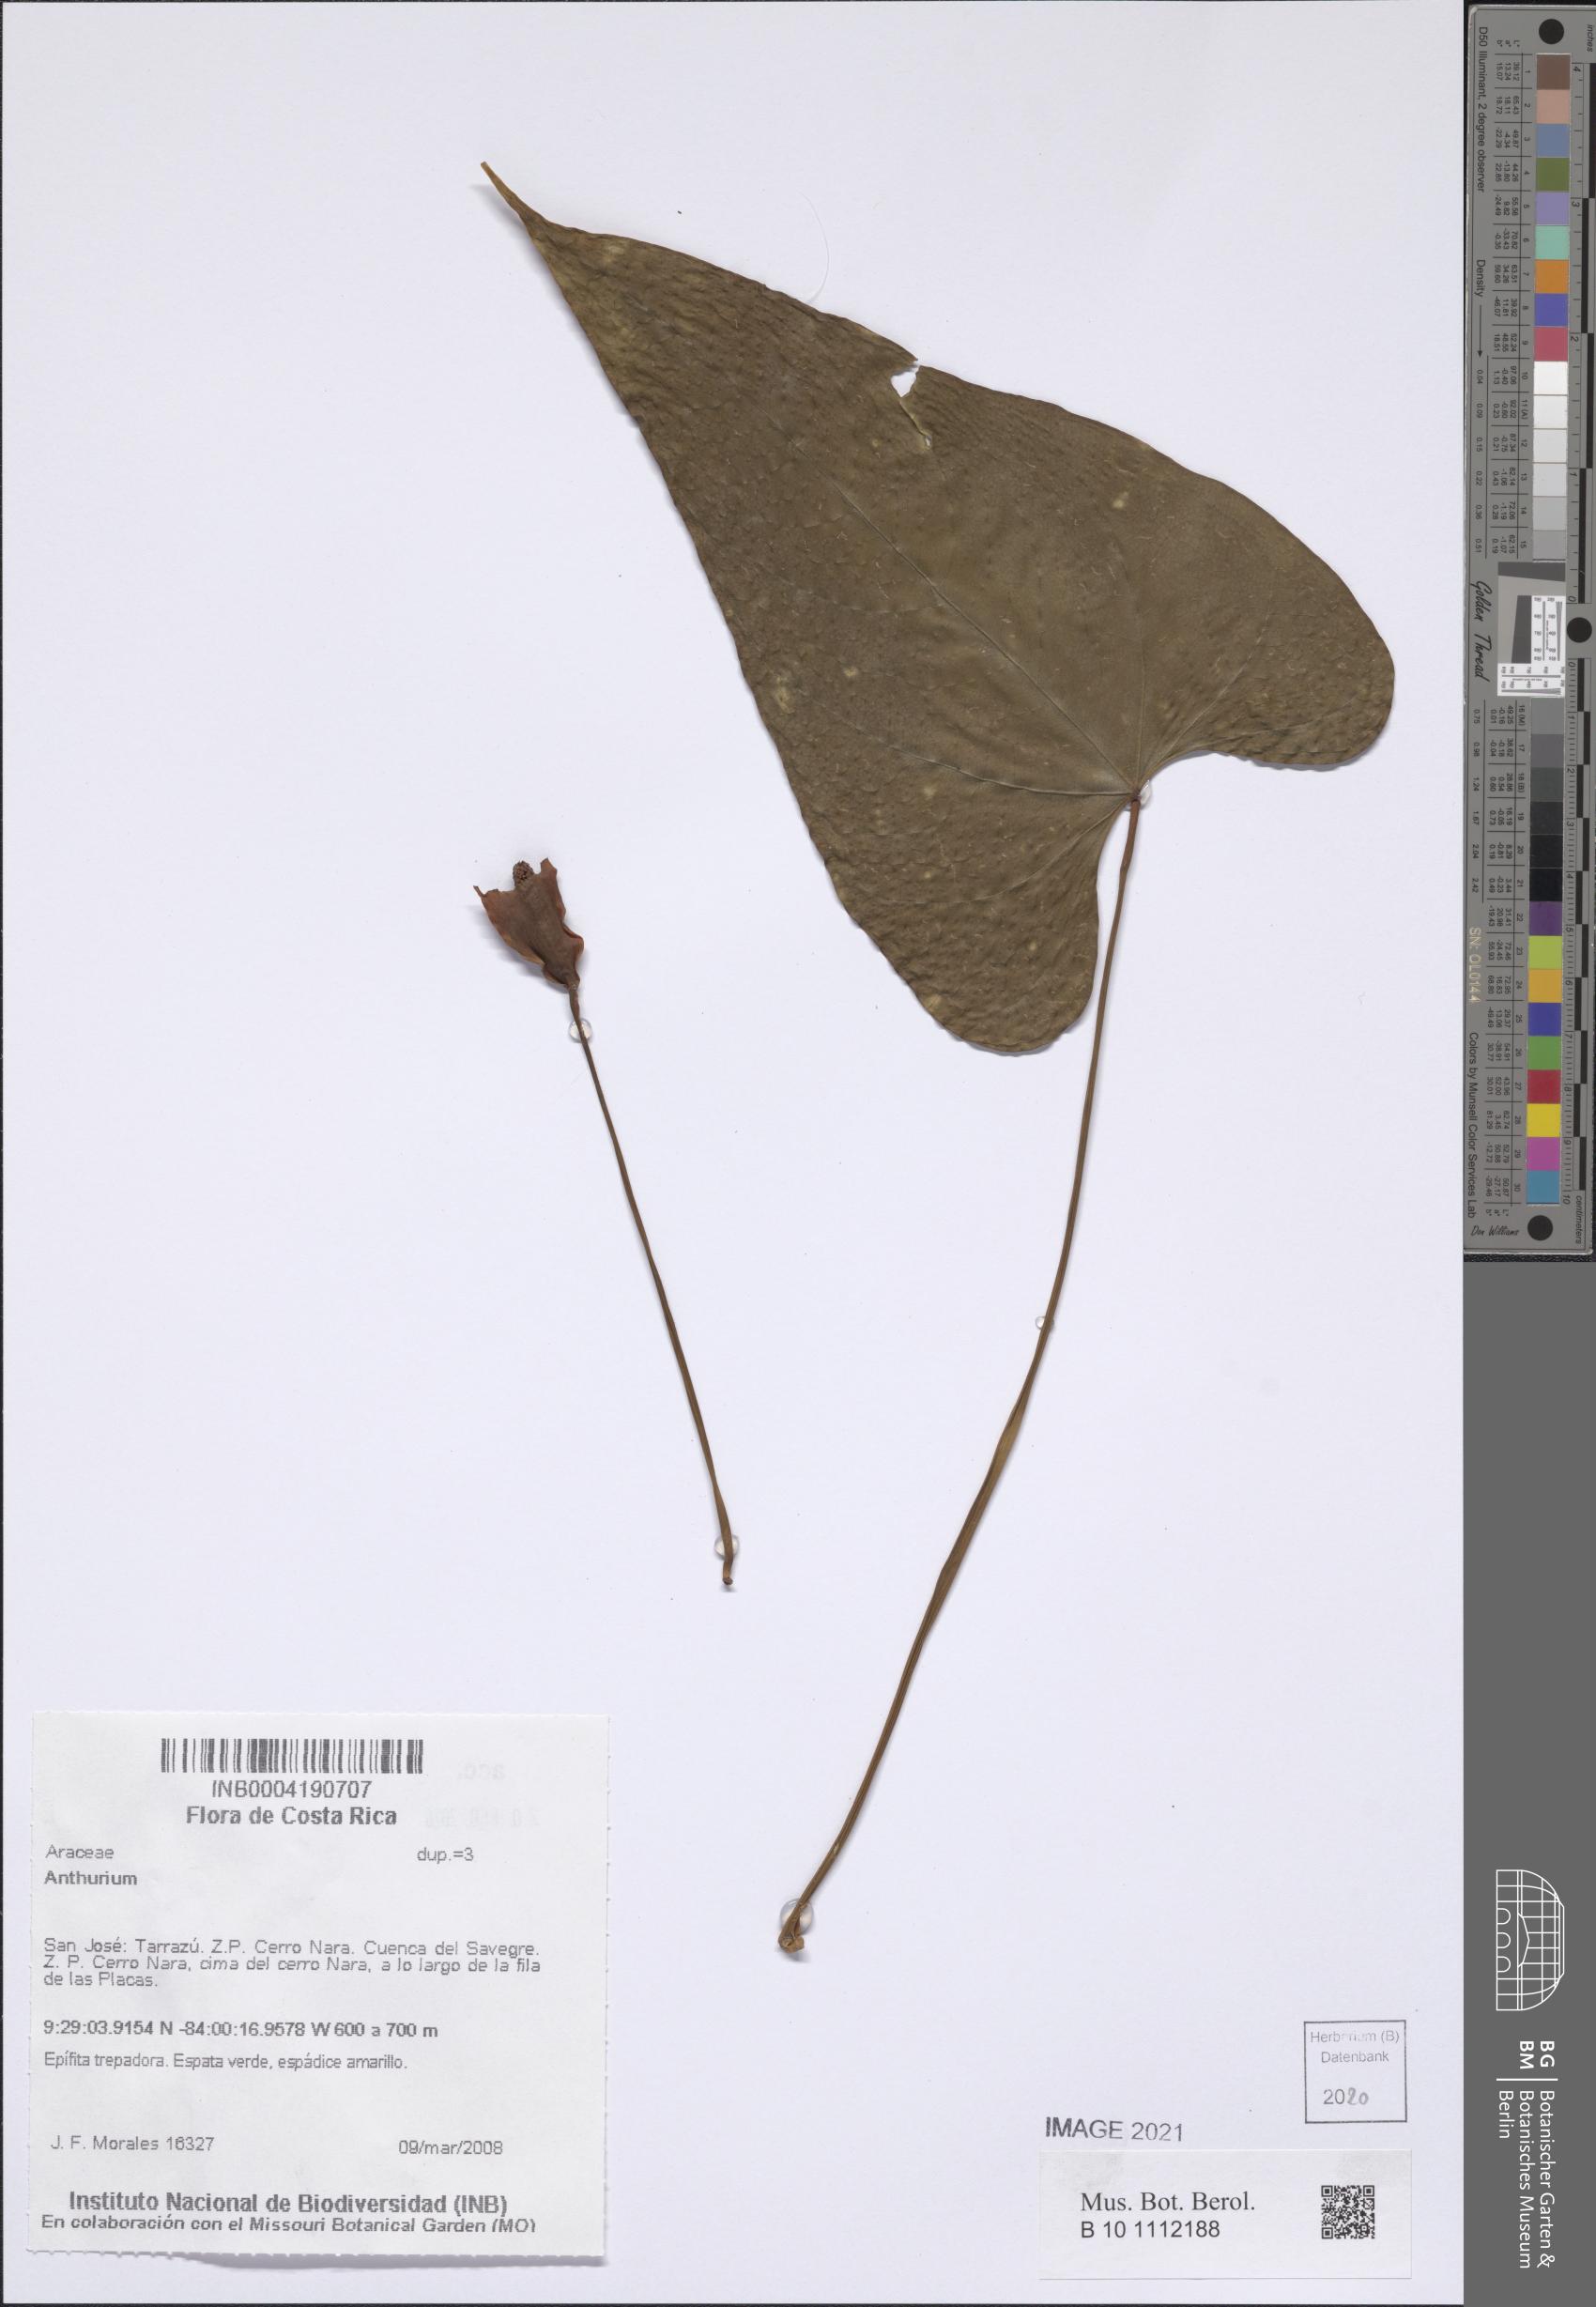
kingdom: Plantae
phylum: Tracheophyta
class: Liliopsida
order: Alismatales
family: Araceae
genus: Anthurium
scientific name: Anthurium
